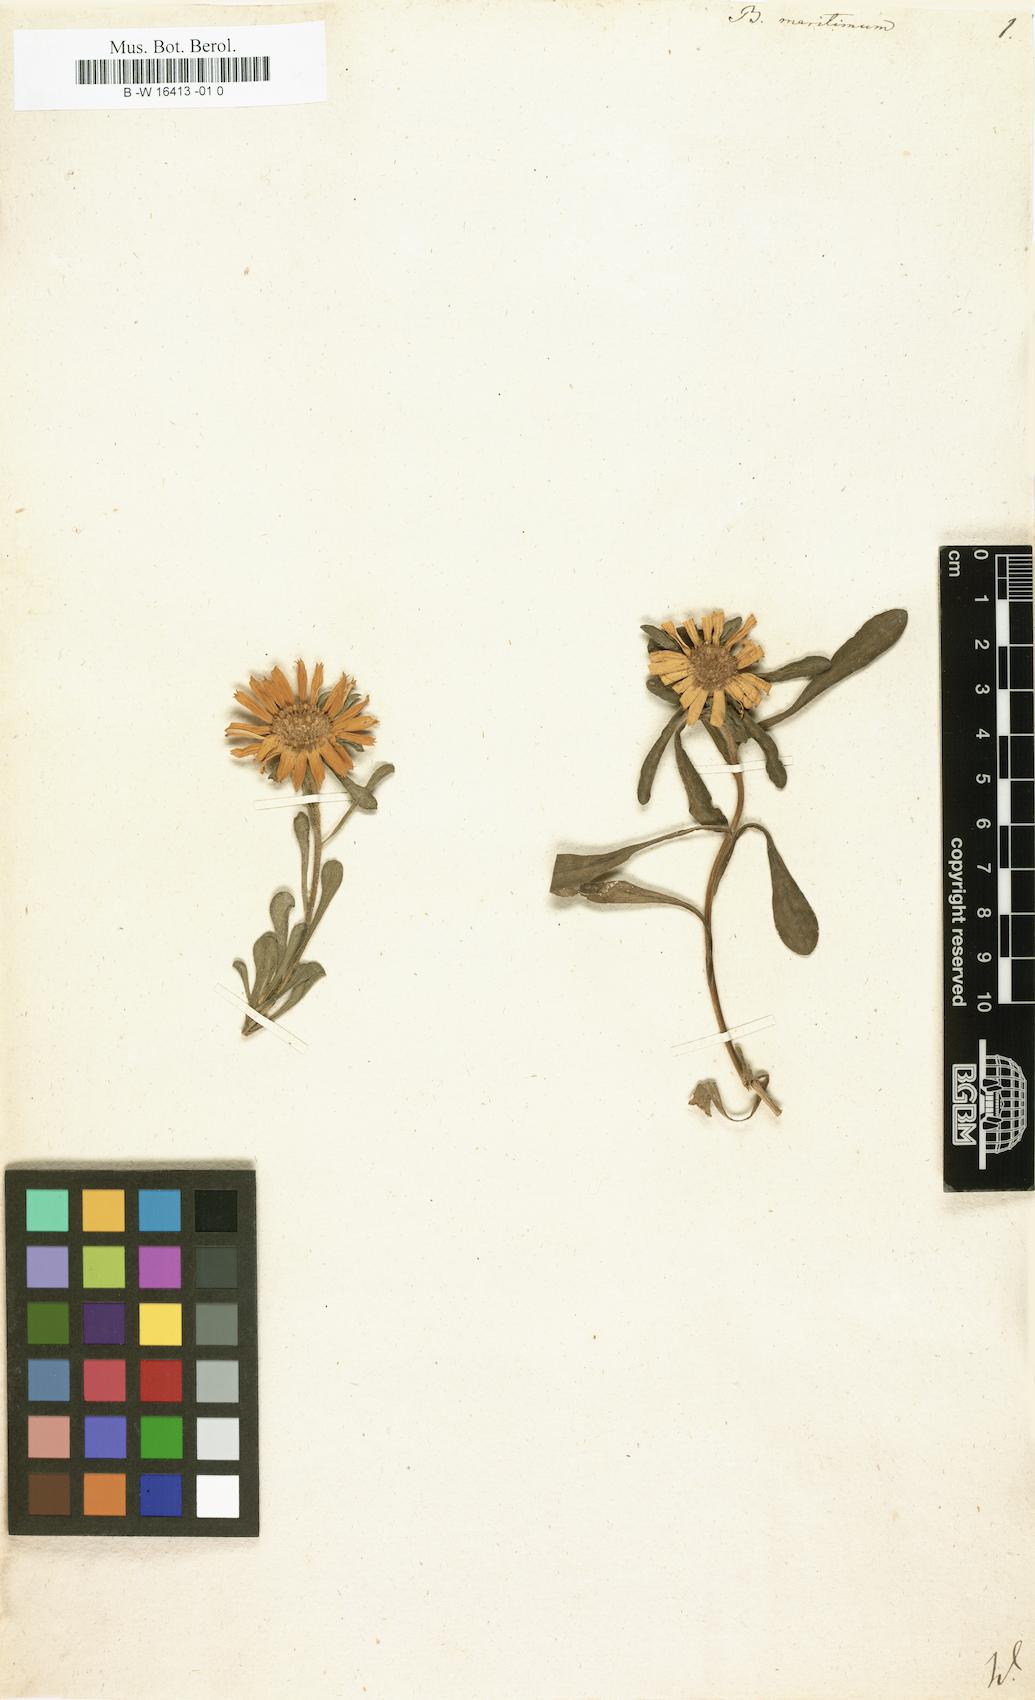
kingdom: Plantae
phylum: Tracheophyta
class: Magnoliopsida
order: Asterales
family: Asteraceae
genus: Pallenis
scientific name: Pallenis maritima
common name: Golden coin daisy
